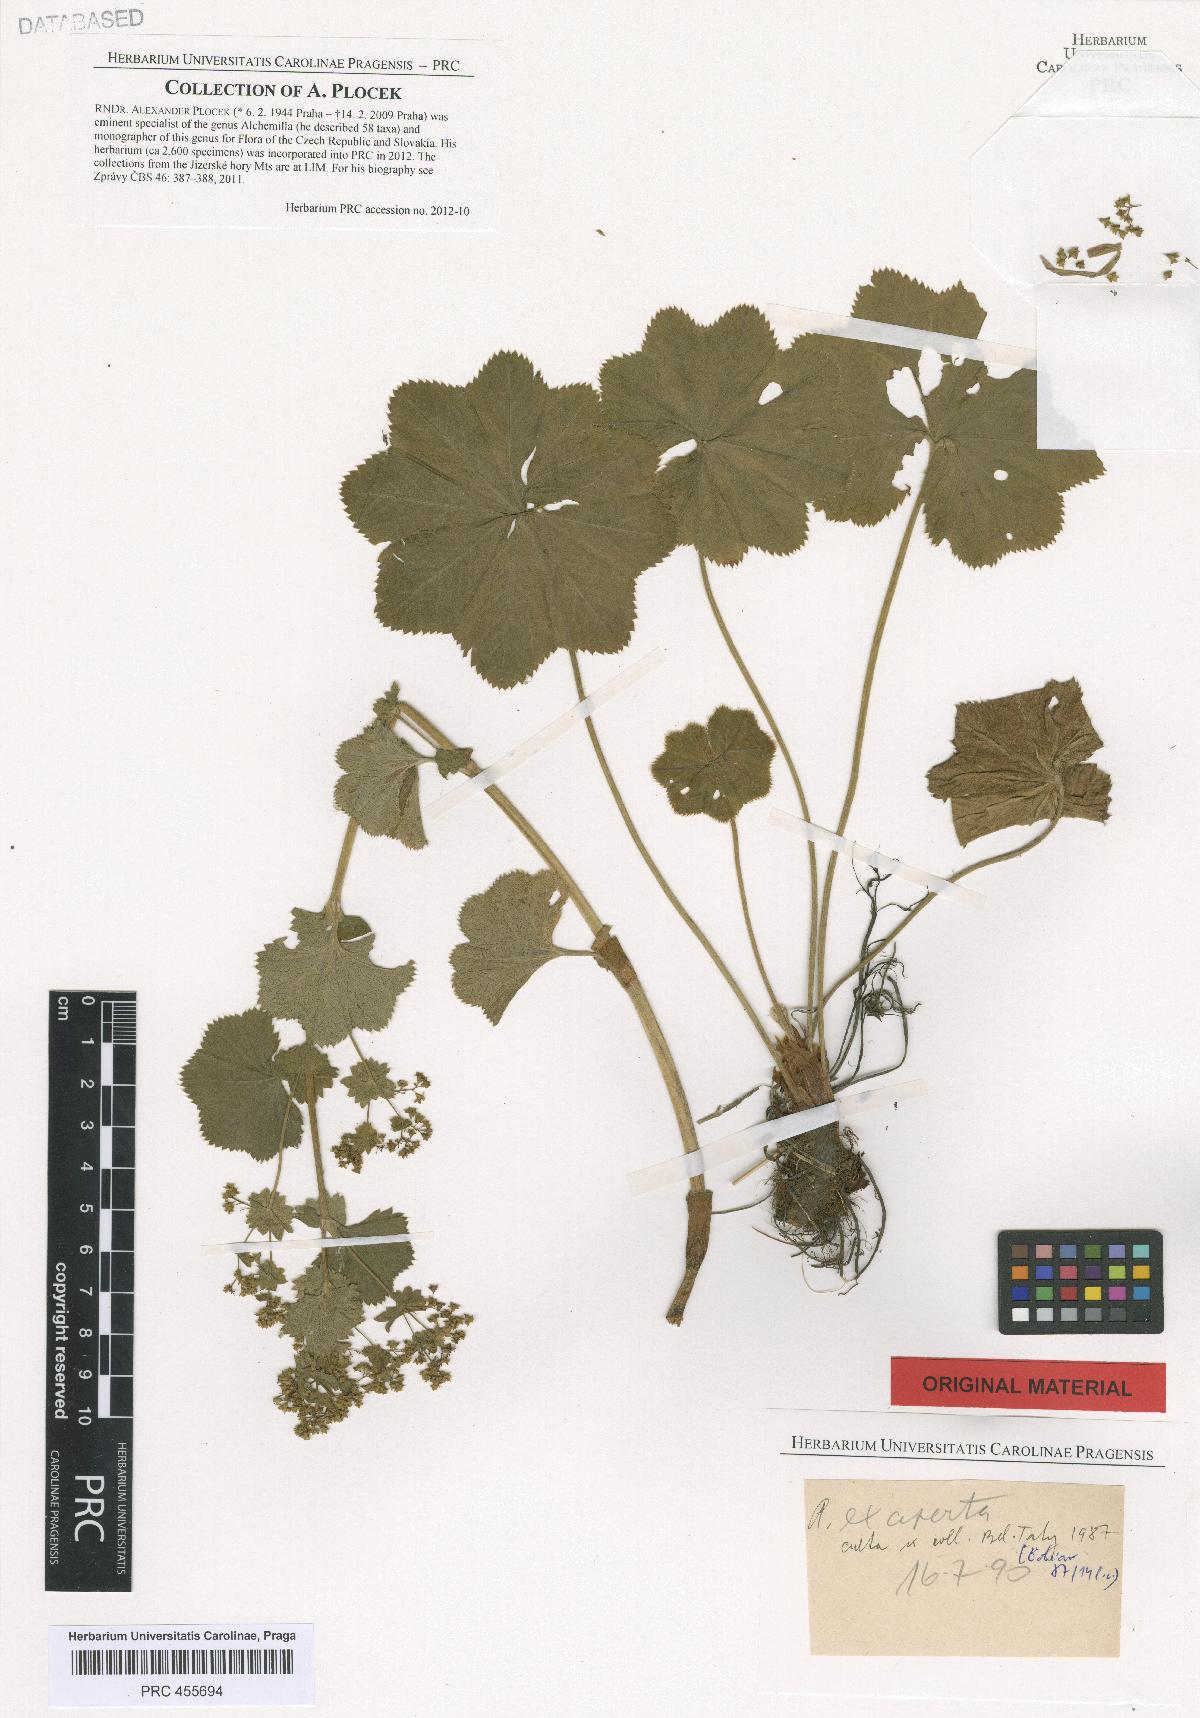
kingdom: Plantae
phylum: Tracheophyta
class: Magnoliopsida
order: Rosales
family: Rosaceae
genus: Alchemilla
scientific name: Alchemilla exaperta
